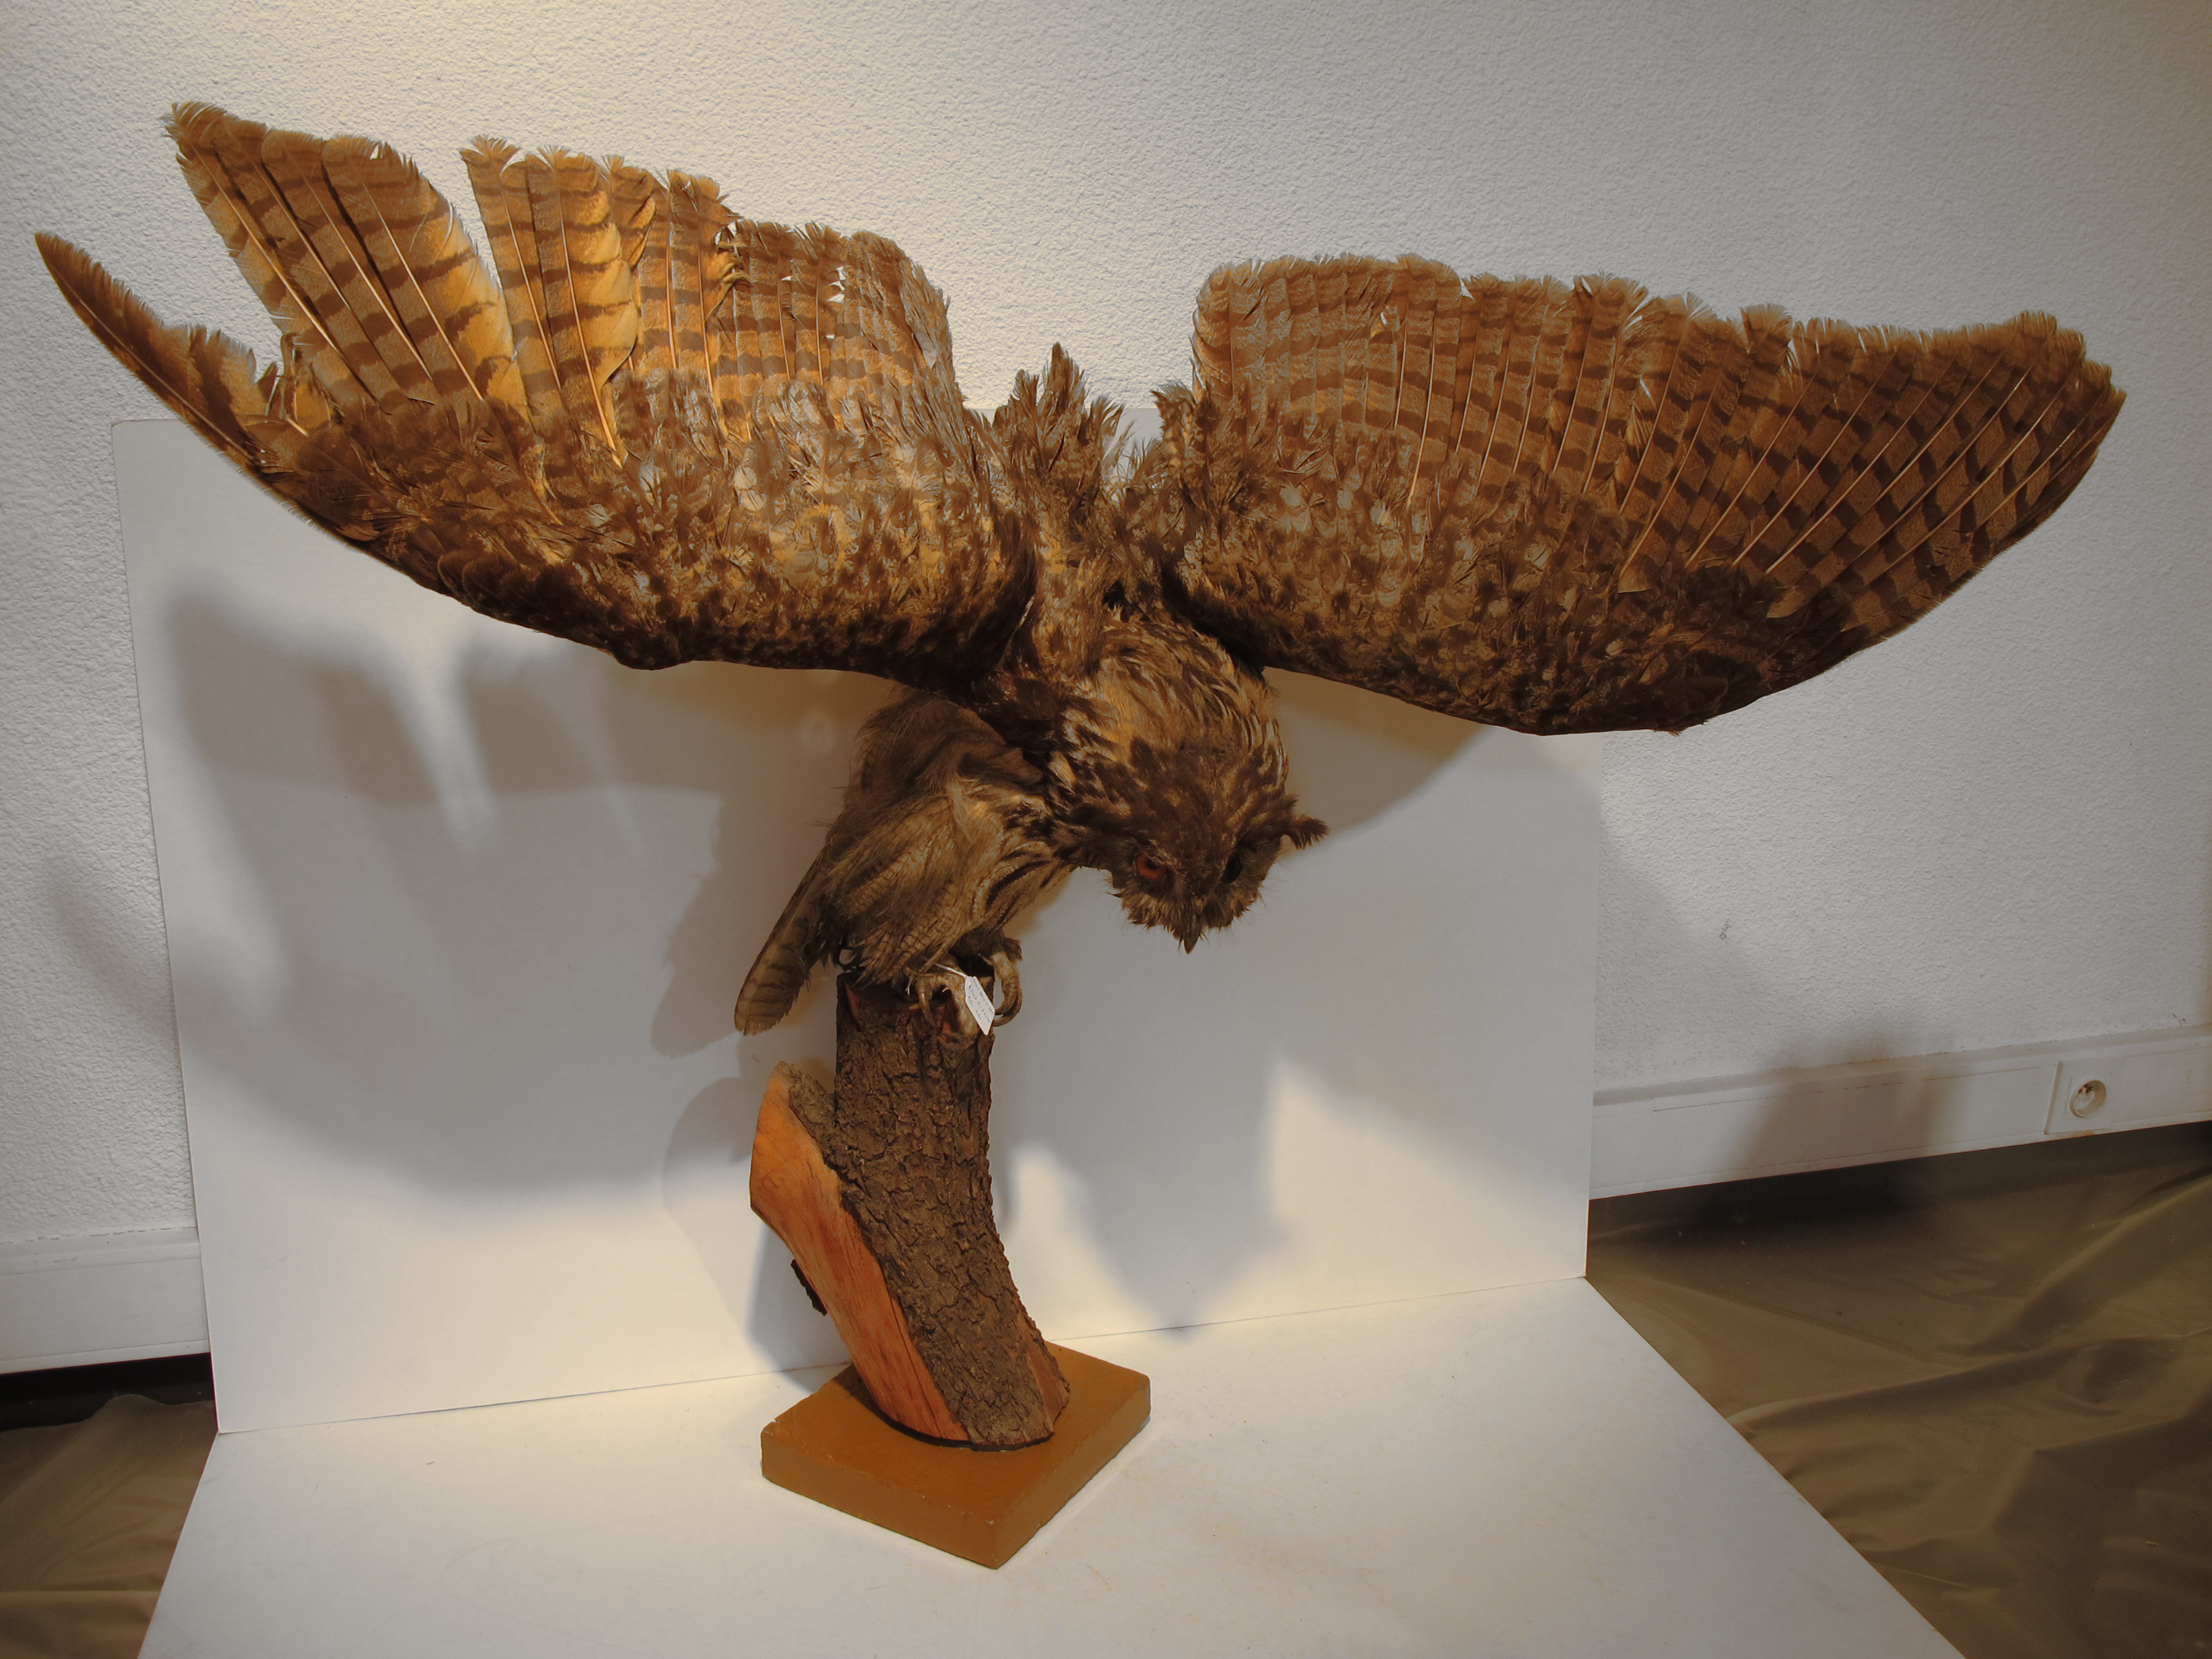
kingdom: Animalia
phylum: Chordata
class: Aves
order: Strigiformes
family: Strigidae
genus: Bubo
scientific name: Bubo bubo
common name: Eurasian Eagle-owl
